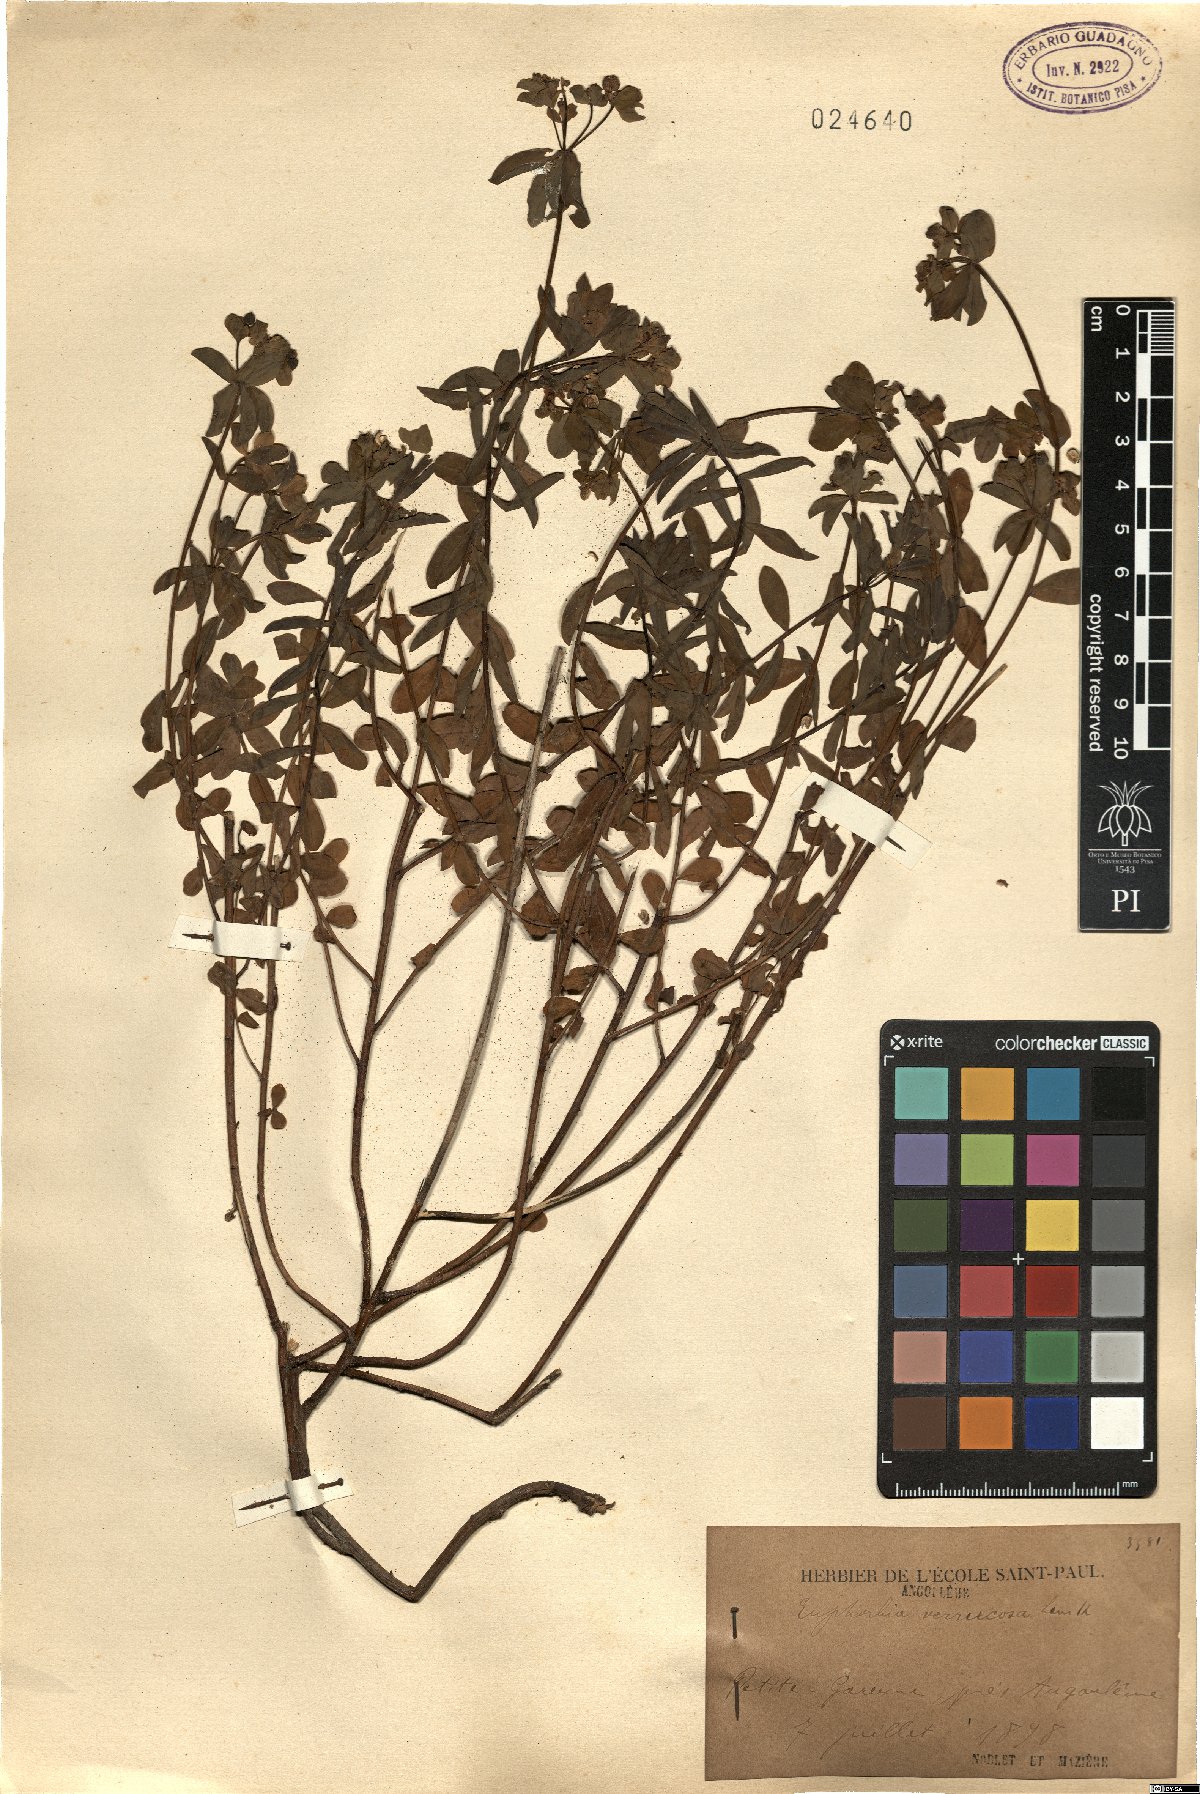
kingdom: Plantae
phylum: Tracheophyta
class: Magnoliopsida
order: Malpighiales
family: Euphorbiaceae
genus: Euphorbia
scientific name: Euphorbia verrucosa
